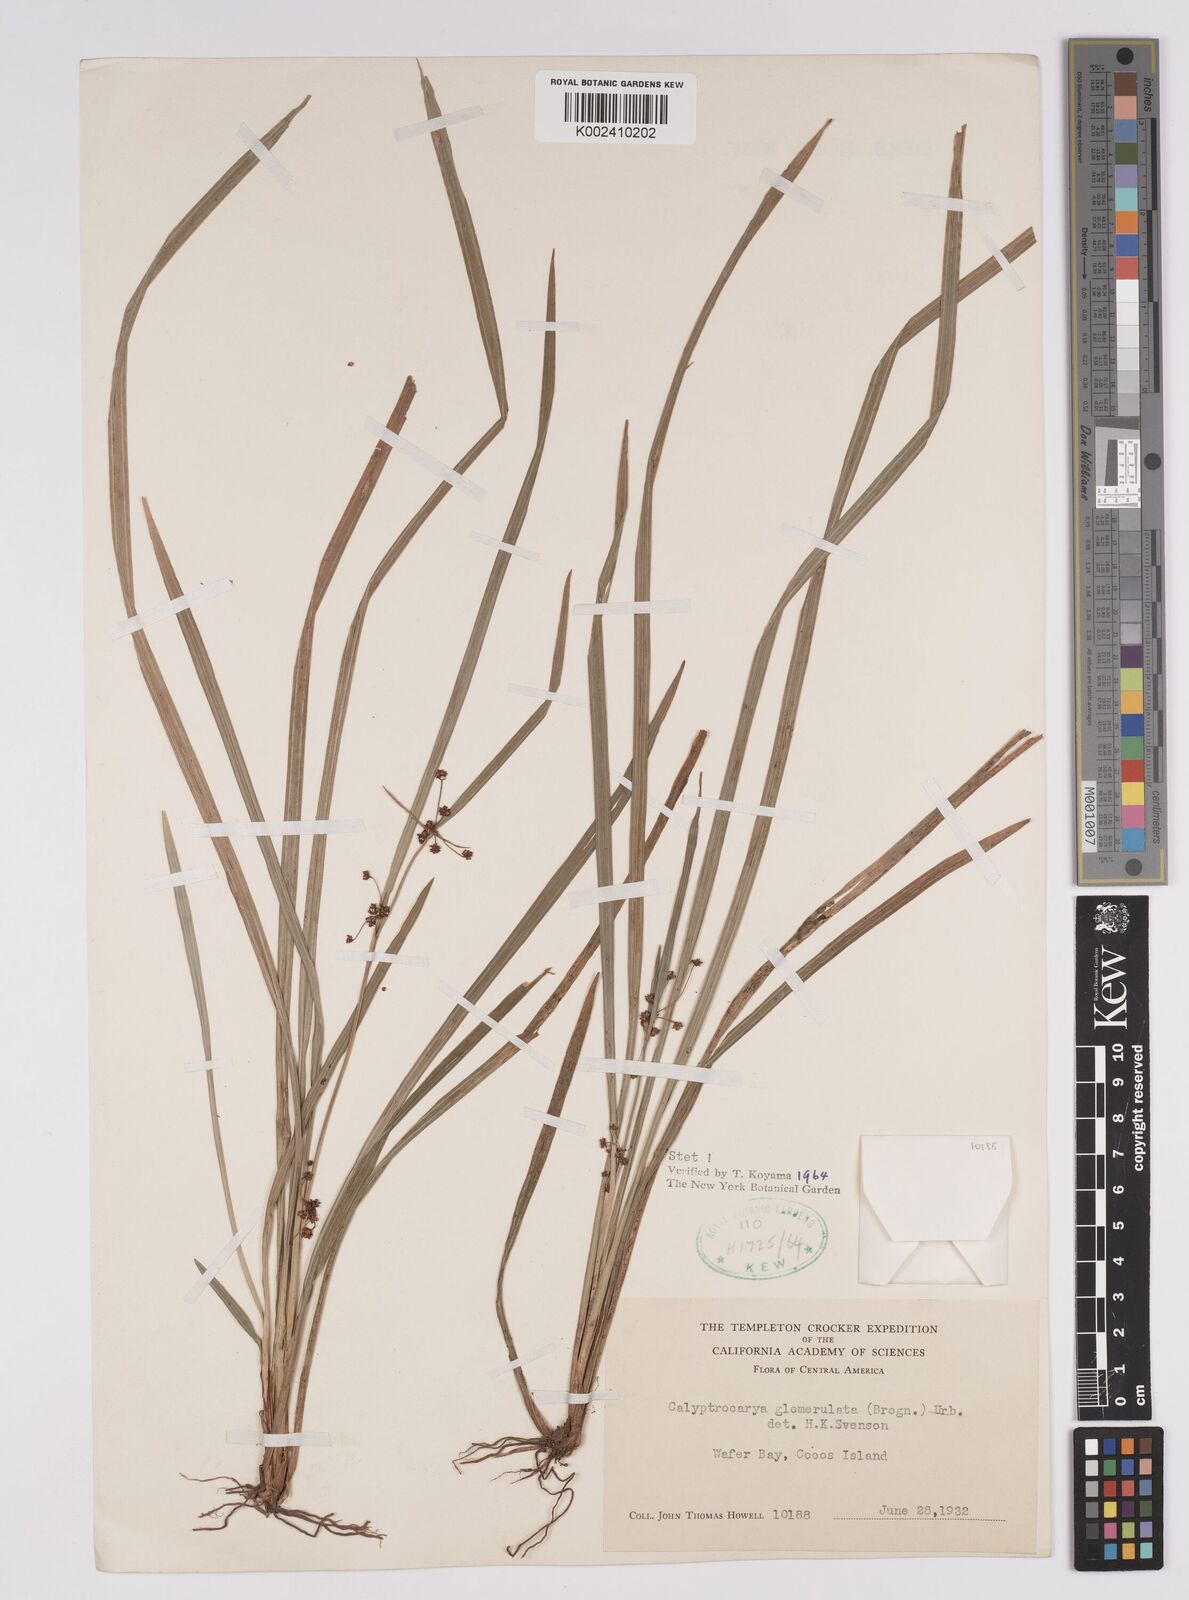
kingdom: Plantae
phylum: Tracheophyta
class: Liliopsida
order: Poales
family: Cyperaceae
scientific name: Cyperaceae
